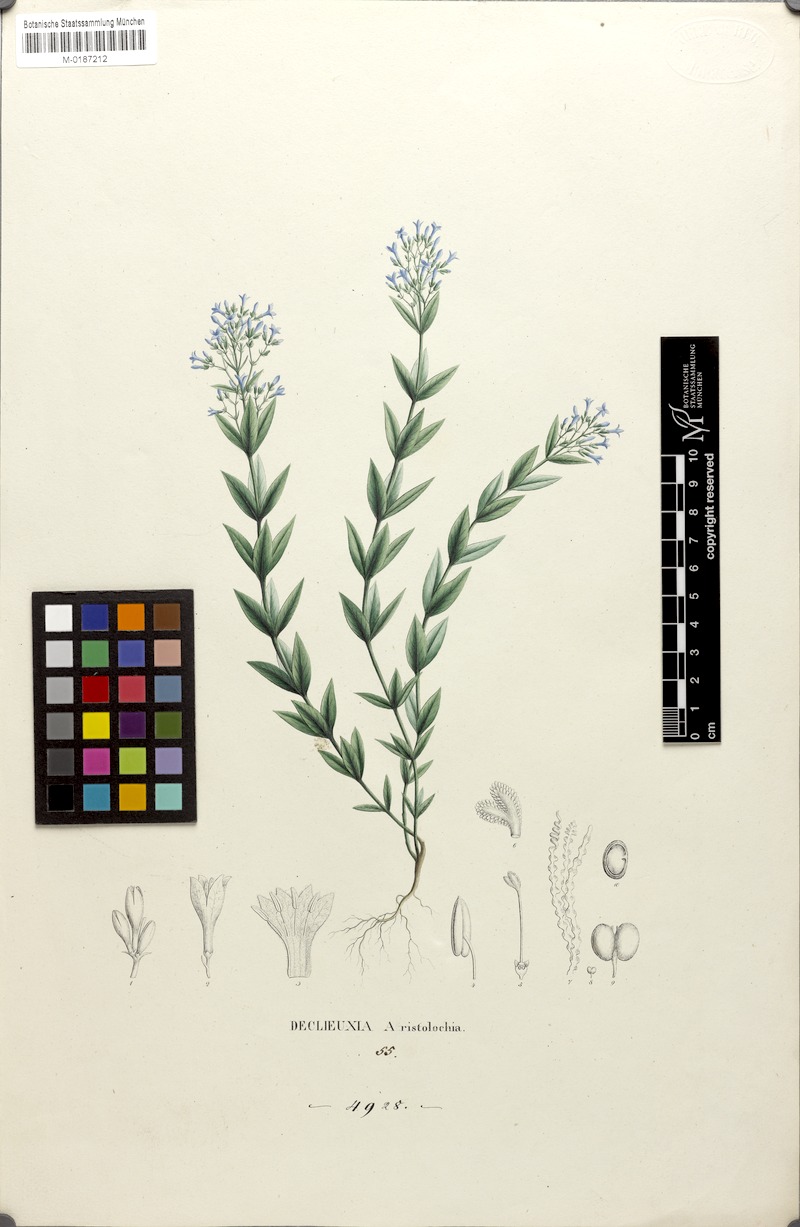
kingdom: Plantae
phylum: Tracheophyta
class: Magnoliopsida
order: Gentianales
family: Rubiaceae
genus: Declieuxia
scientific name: Declieuxia cordigera
